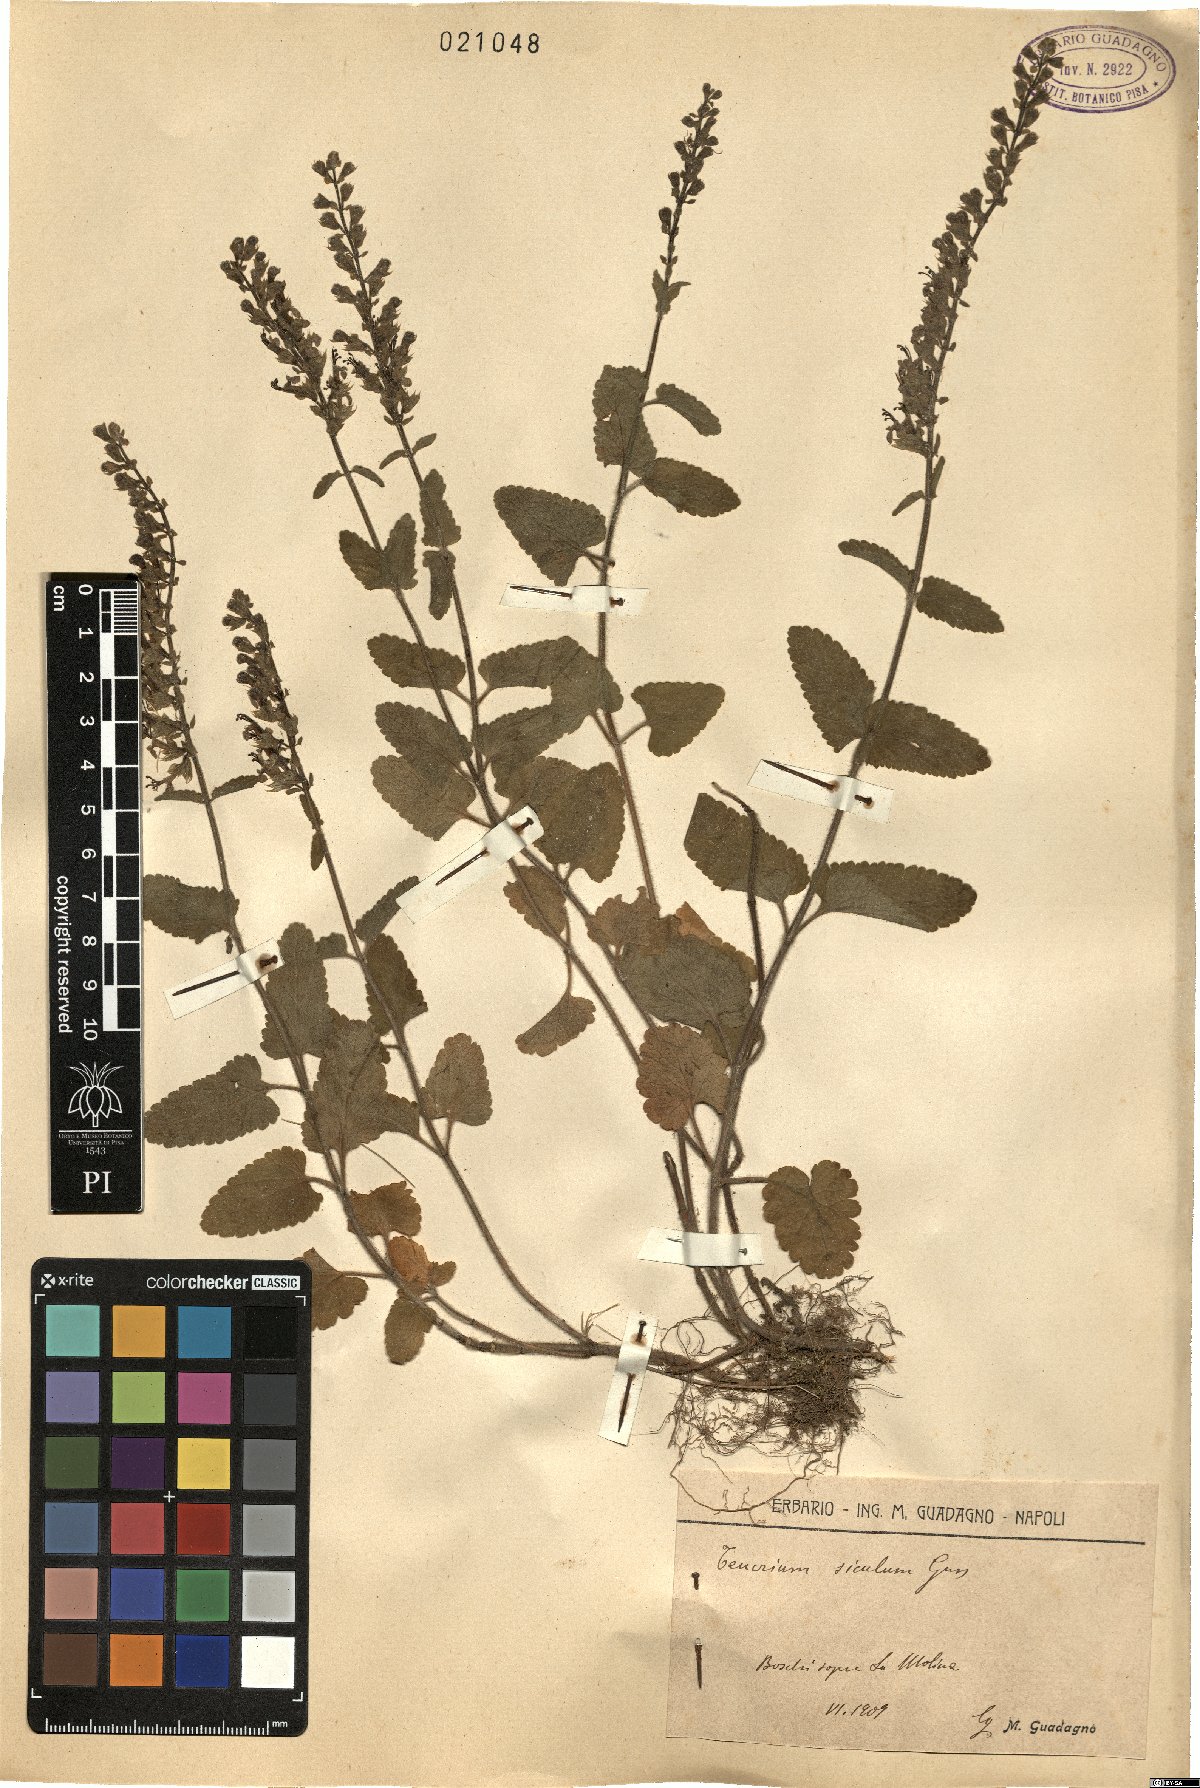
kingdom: Plantae
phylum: Tracheophyta
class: Magnoliopsida
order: Lamiales
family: Lamiaceae
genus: Teucrium
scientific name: Teucrium siculum
